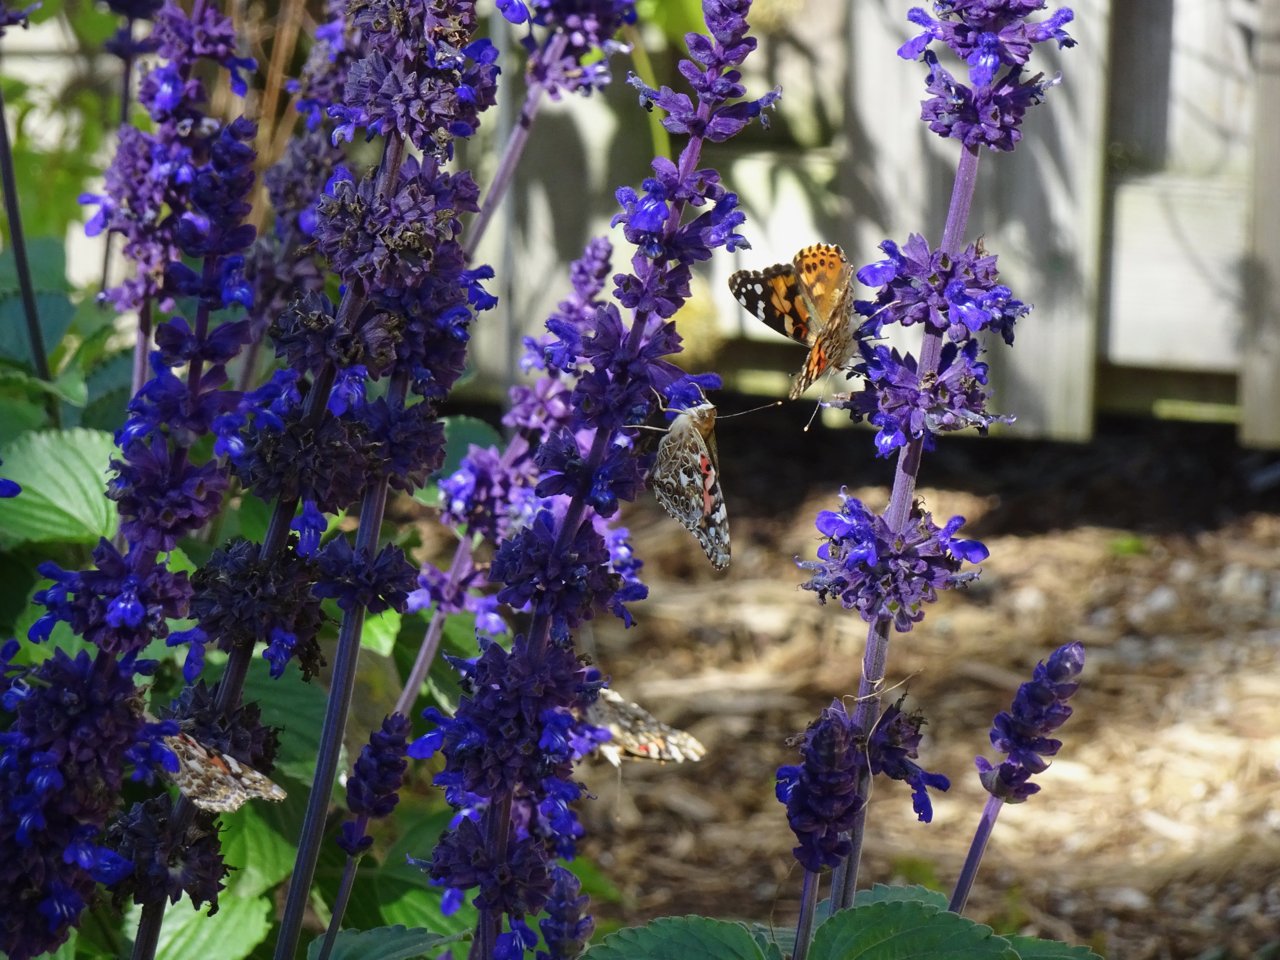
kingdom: Animalia
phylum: Arthropoda
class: Insecta
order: Lepidoptera
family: Nymphalidae
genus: Vanessa
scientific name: Vanessa cardui
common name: Painted Lady
